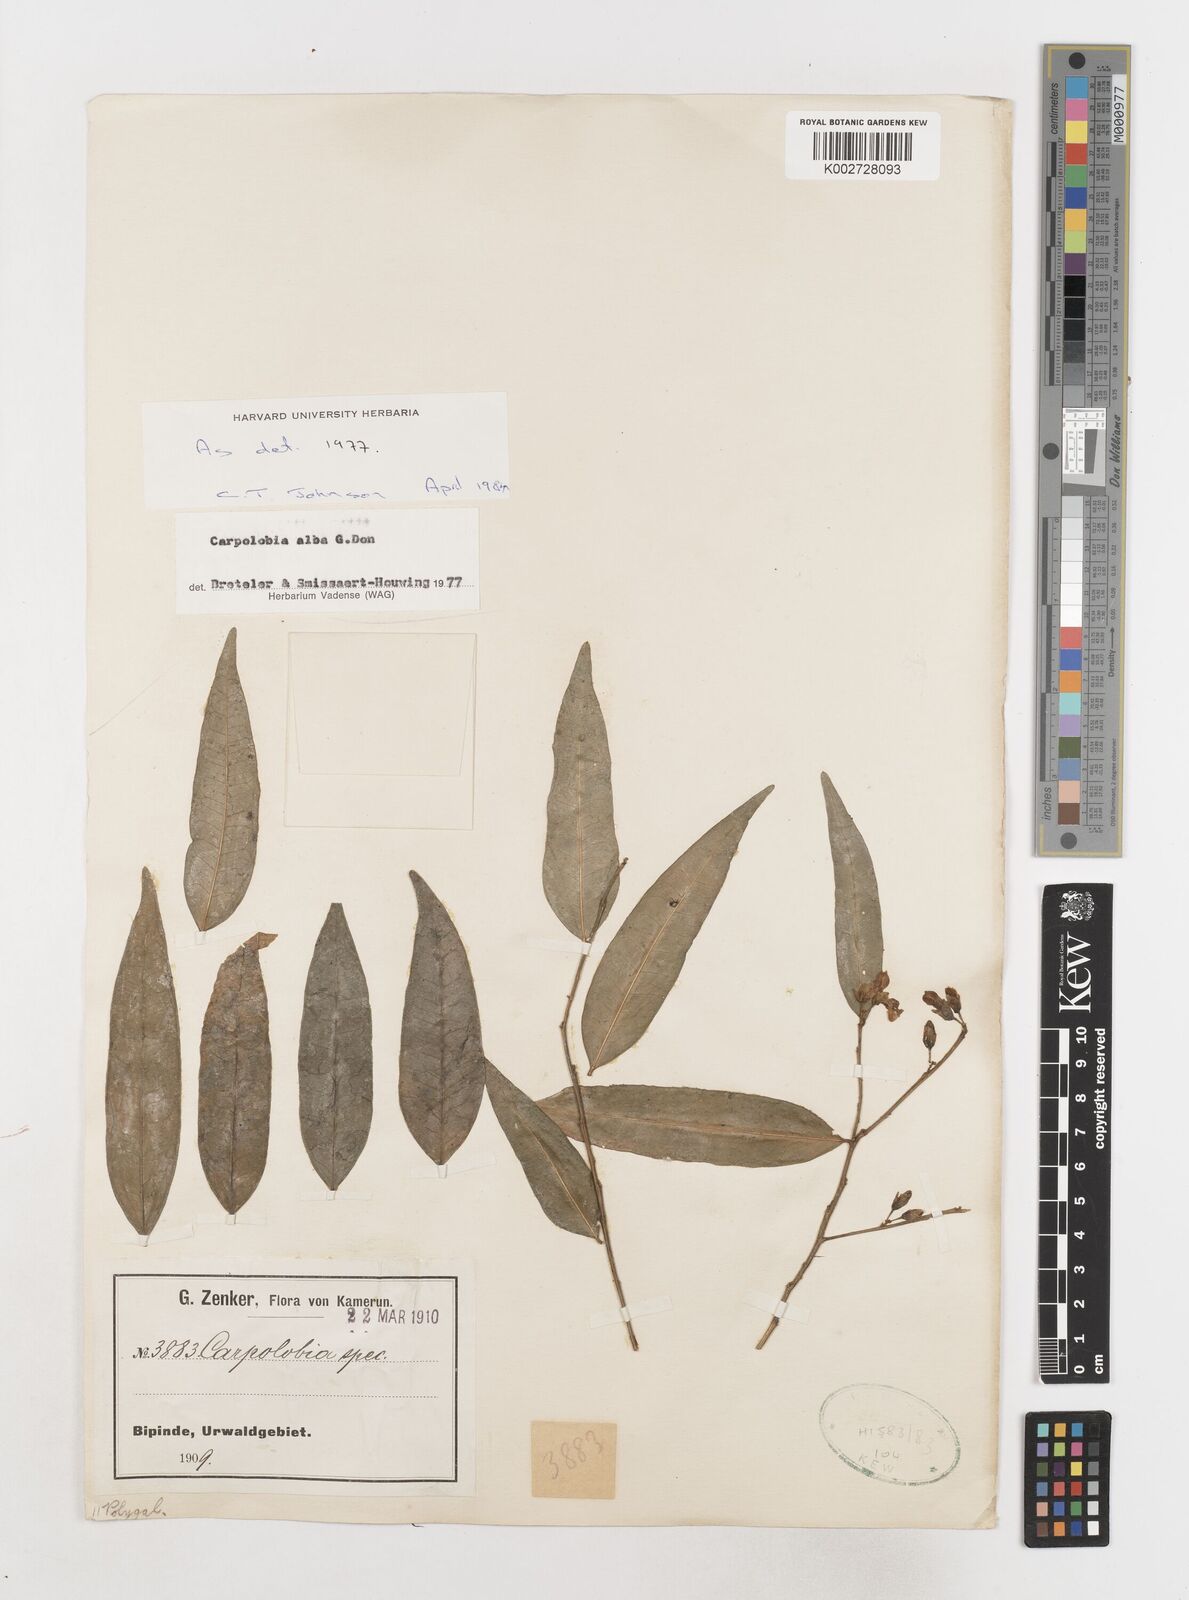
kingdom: Plantae
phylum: Tracheophyta
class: Magnoliopsida
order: Fabales
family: Polygalaceae
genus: Carpolobia
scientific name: Carpolobia alba
